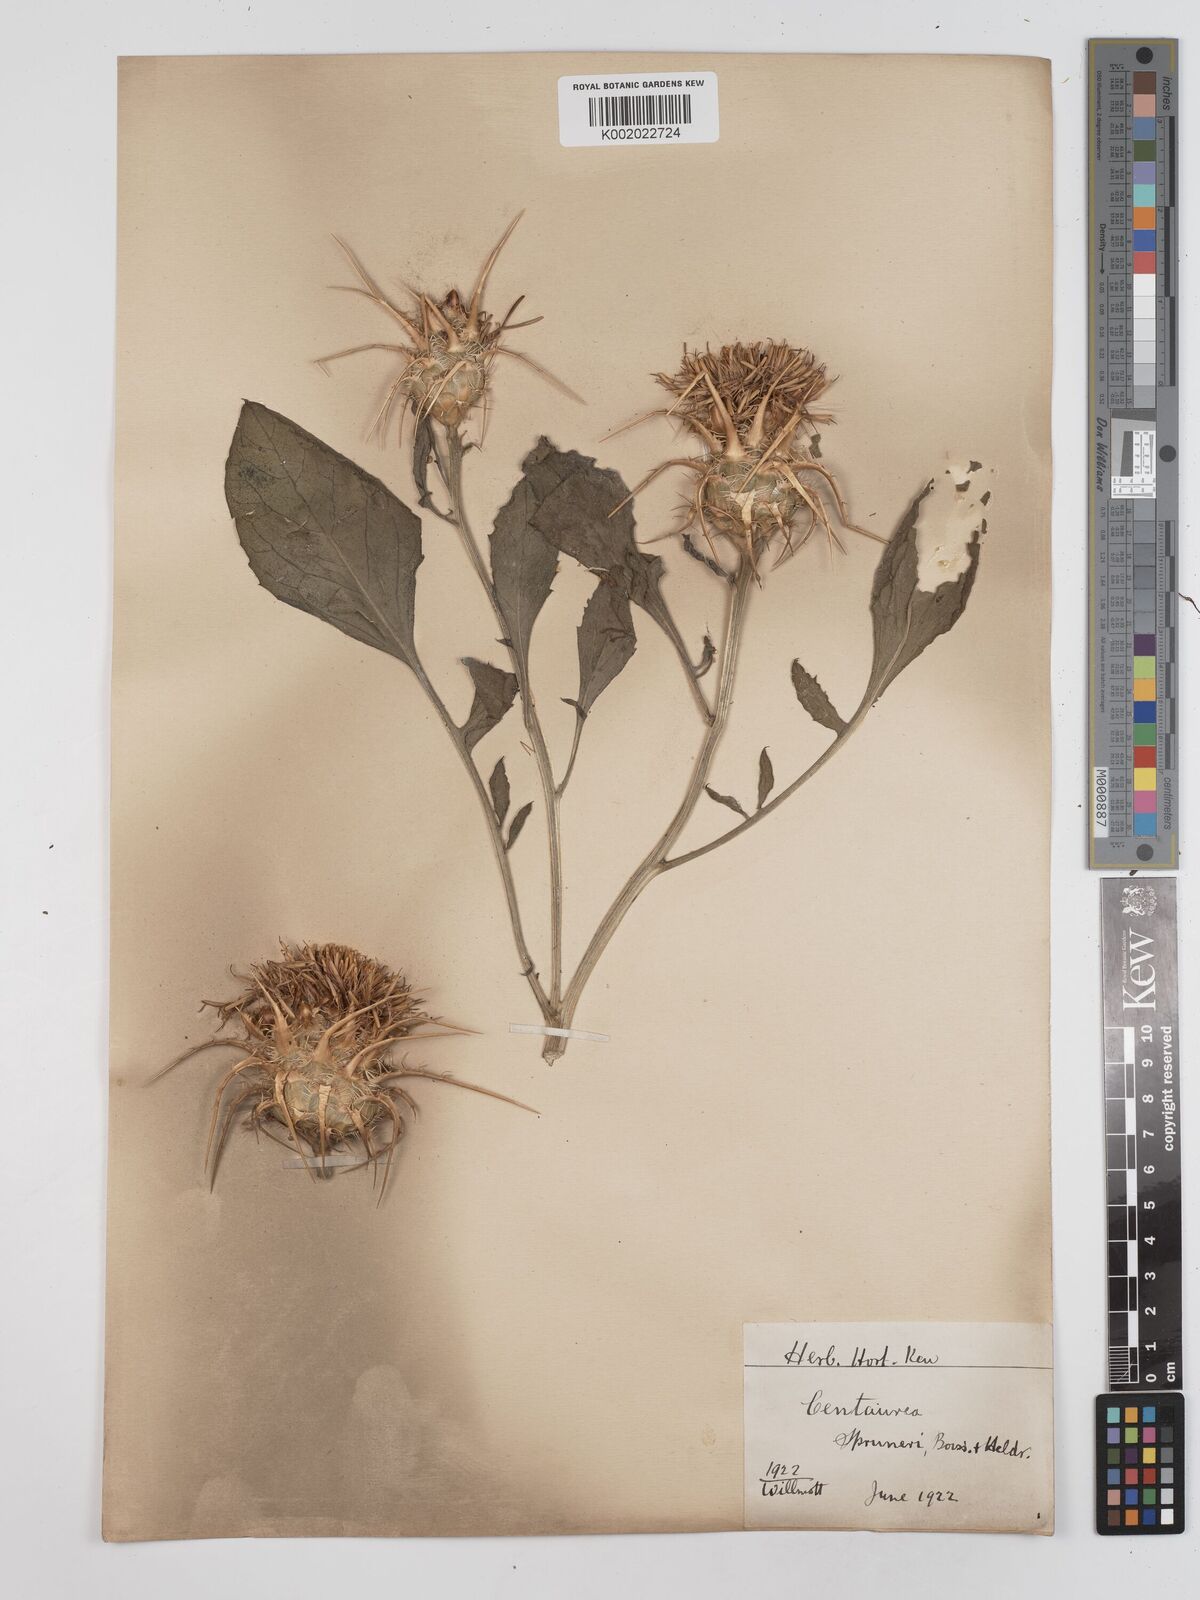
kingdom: Plantae
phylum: Tracheophyta
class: Magnoliopsida
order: Asterales
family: Asteraceae
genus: Centaurea
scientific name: Centaurea spruneri
